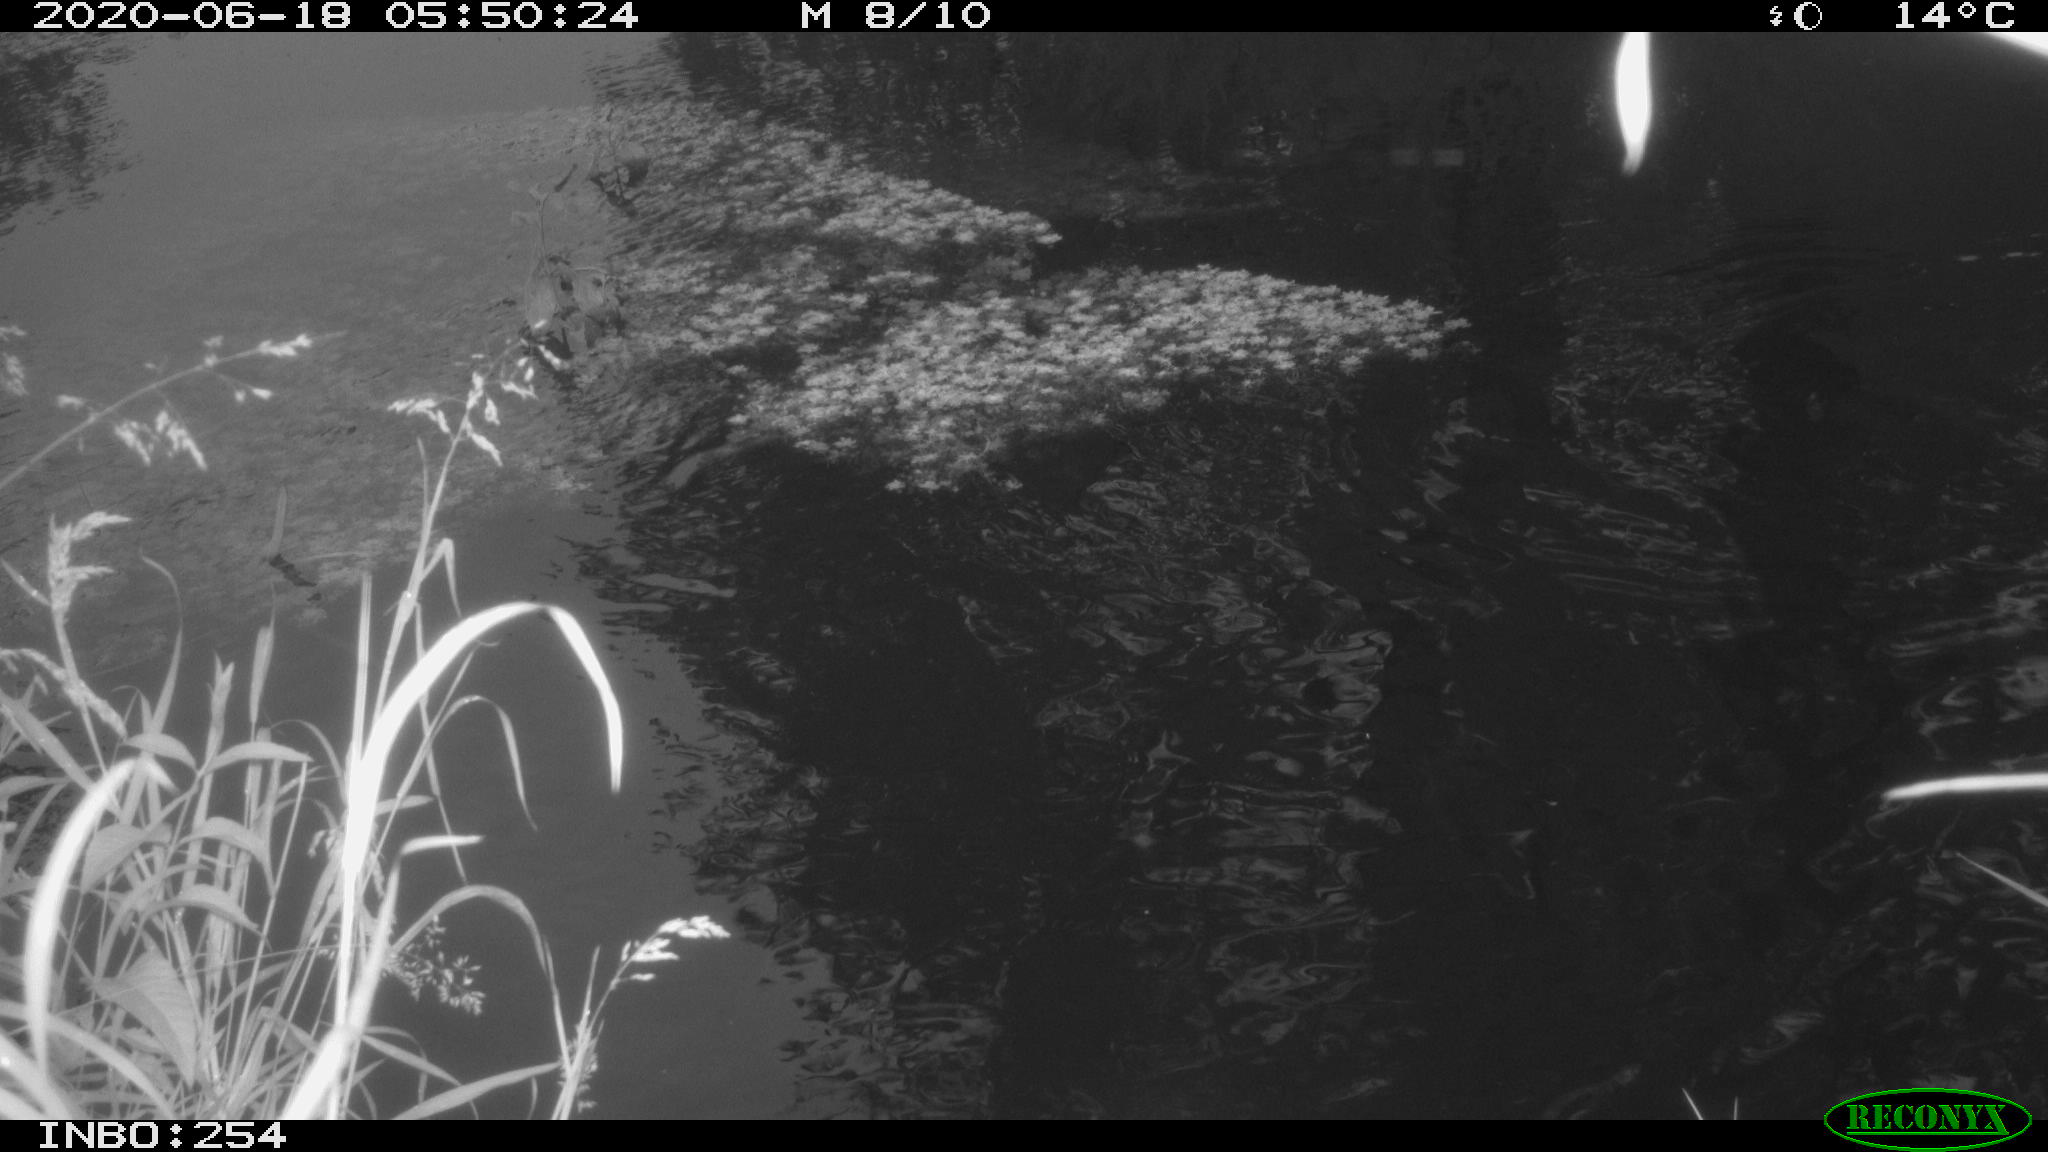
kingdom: Animalia
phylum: Chordata
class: Aves
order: Gruiformes
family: Rallidae
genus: Gallinula
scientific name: Gallinula chloropus
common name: Common moorhen
